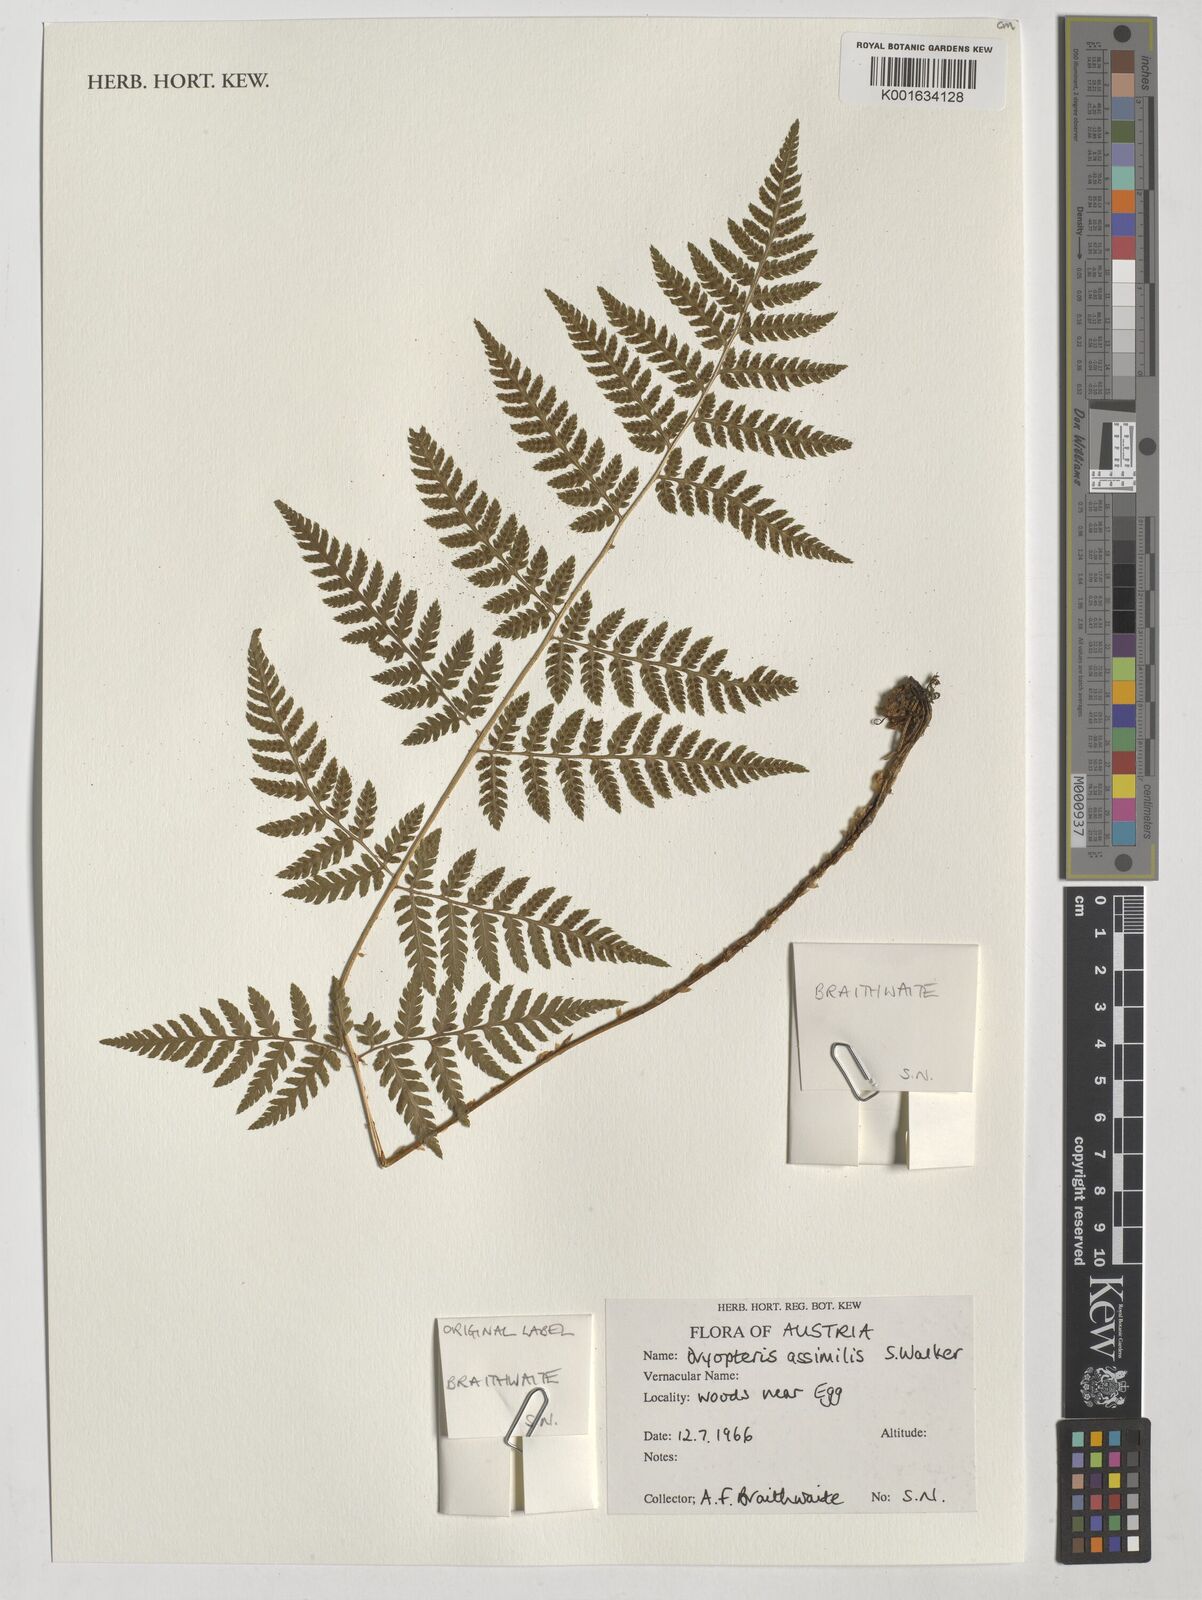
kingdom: Plantae
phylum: Tracheophyta
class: Polypodiopsida
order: Polypodiales
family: Dryopteridaceae
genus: Dryopteris
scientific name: Dryopteris expansa
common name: Northern buckler fern
